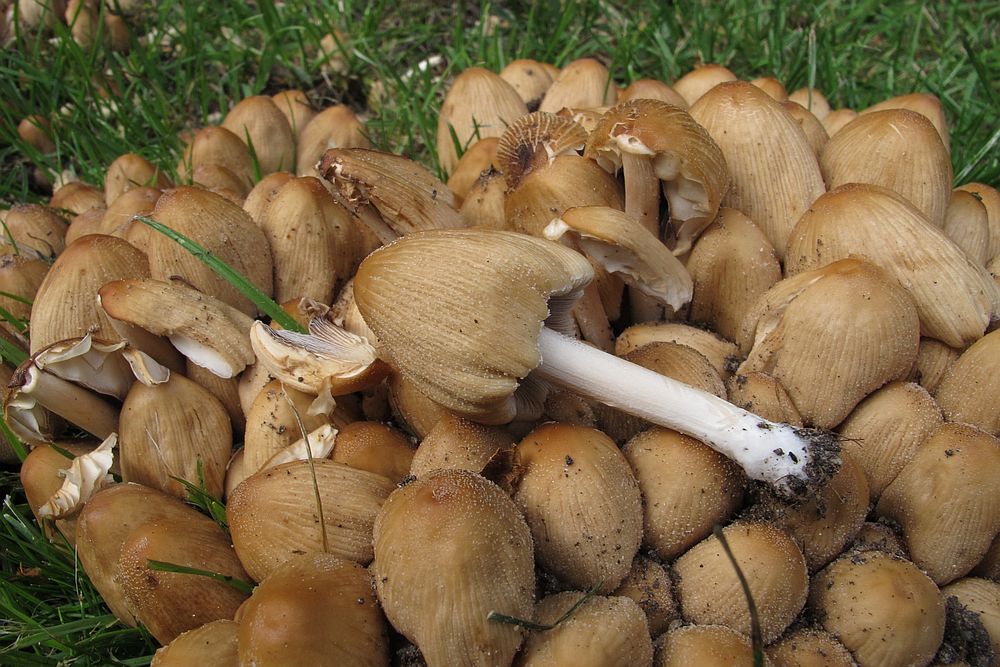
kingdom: Fungi
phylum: Basidiomycota
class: Agaricomycetes
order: Agaricales
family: Psathyrellaceae
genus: Coprinellus
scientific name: Coprinellus micaceus
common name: glimmer-blækhat
